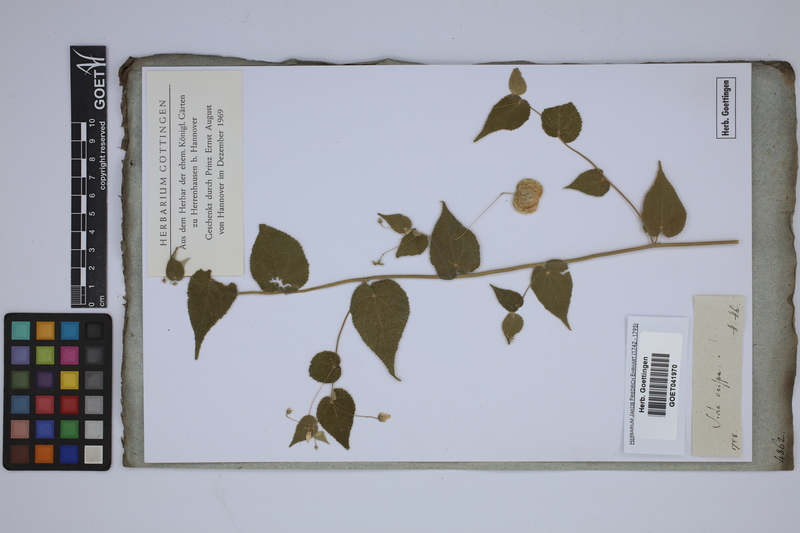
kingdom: Plantae
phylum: Tracheophyta
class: Magnoliopsida
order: Malvales
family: Malvaceae
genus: Herissantia
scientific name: Herissantia crispa
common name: Bladdermallow
